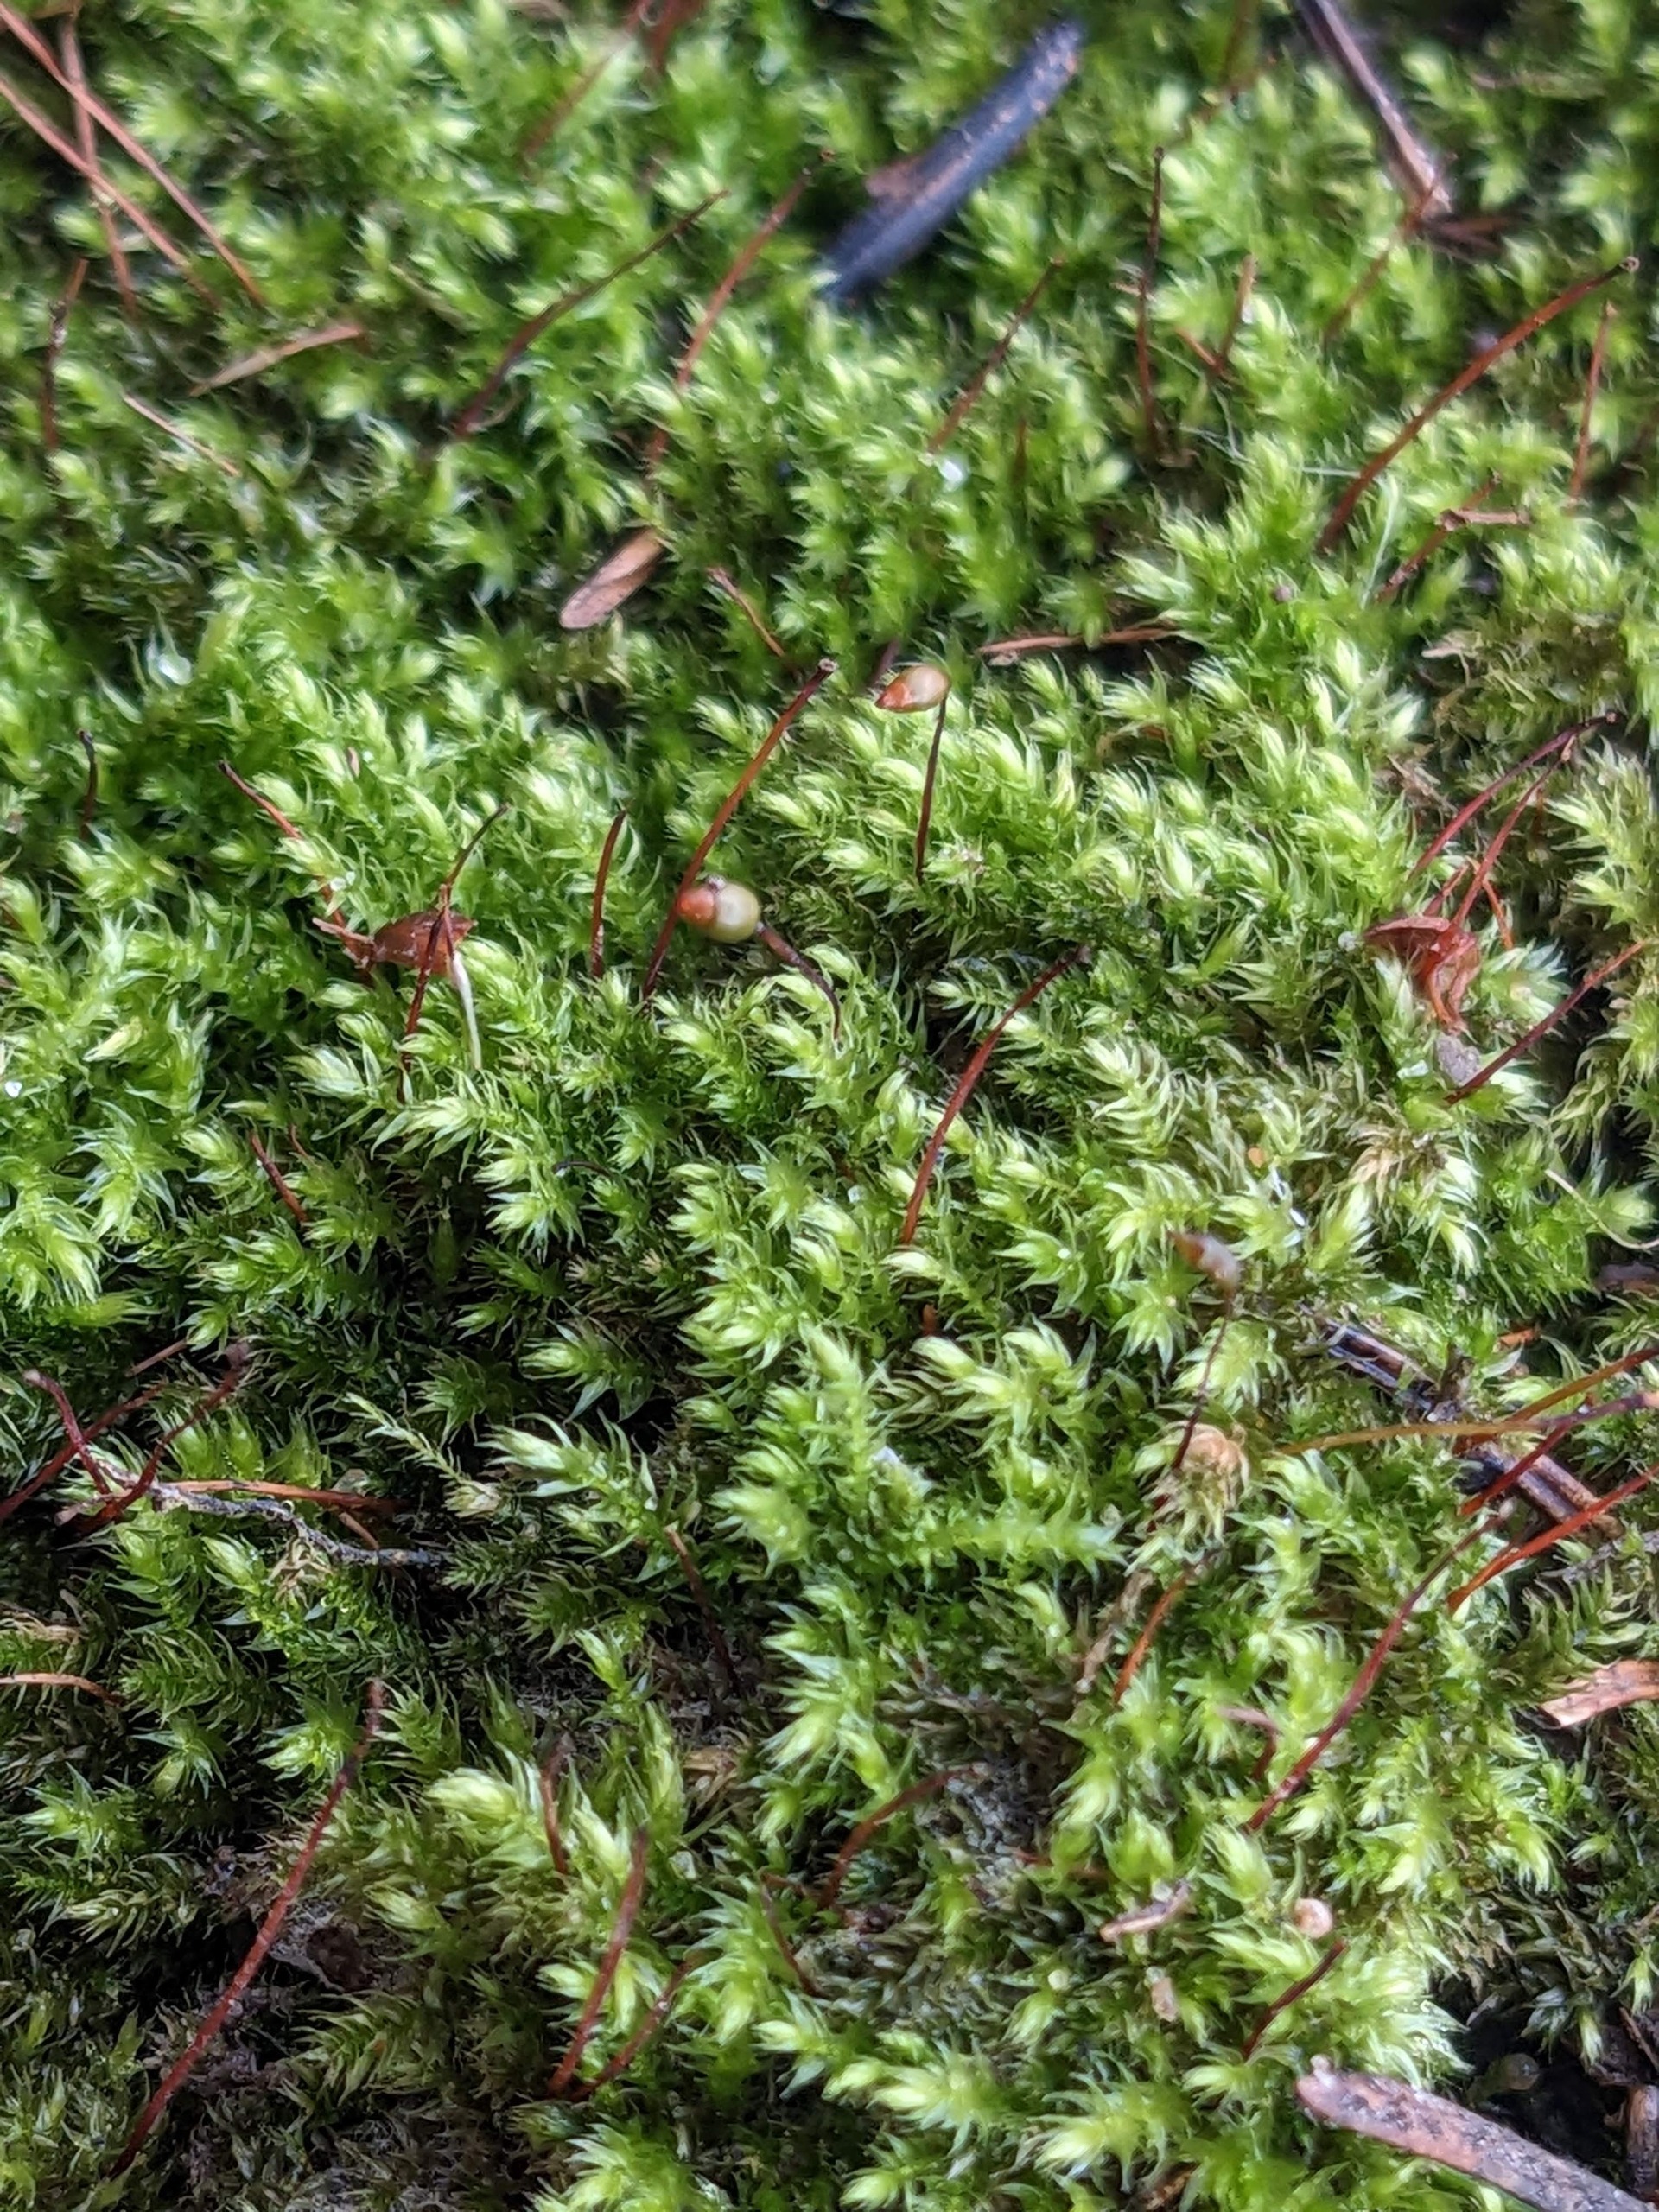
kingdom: Plantae
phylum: Bryophyta
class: Bryopsida
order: Hypnales
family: Brachytheciaceae
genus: Brachytheciastrum
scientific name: Brachytheciastrum velutinum
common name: Fløjls-kortkapsel
